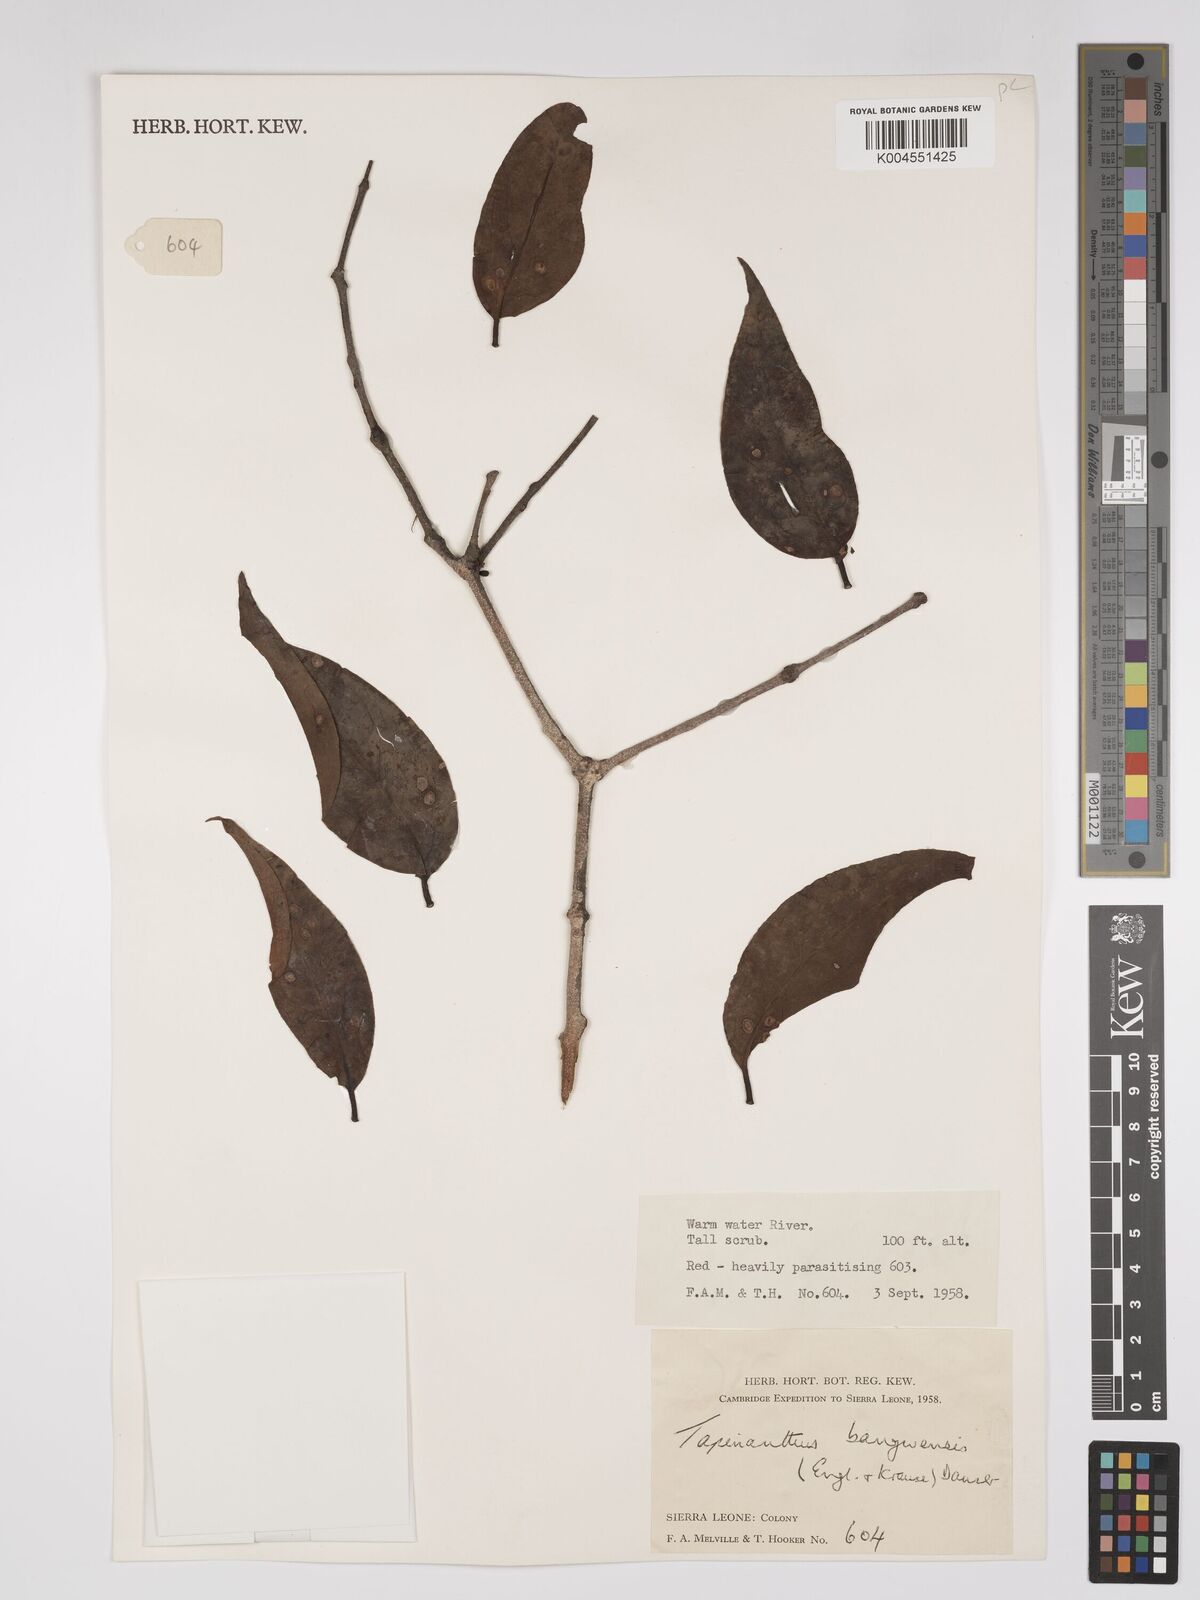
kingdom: Plantae
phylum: Tracheophyta
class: Magnoliopsida
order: Santalales
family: Loranthaceae
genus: Tapinanthus
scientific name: Tapinanthus bangwensis
